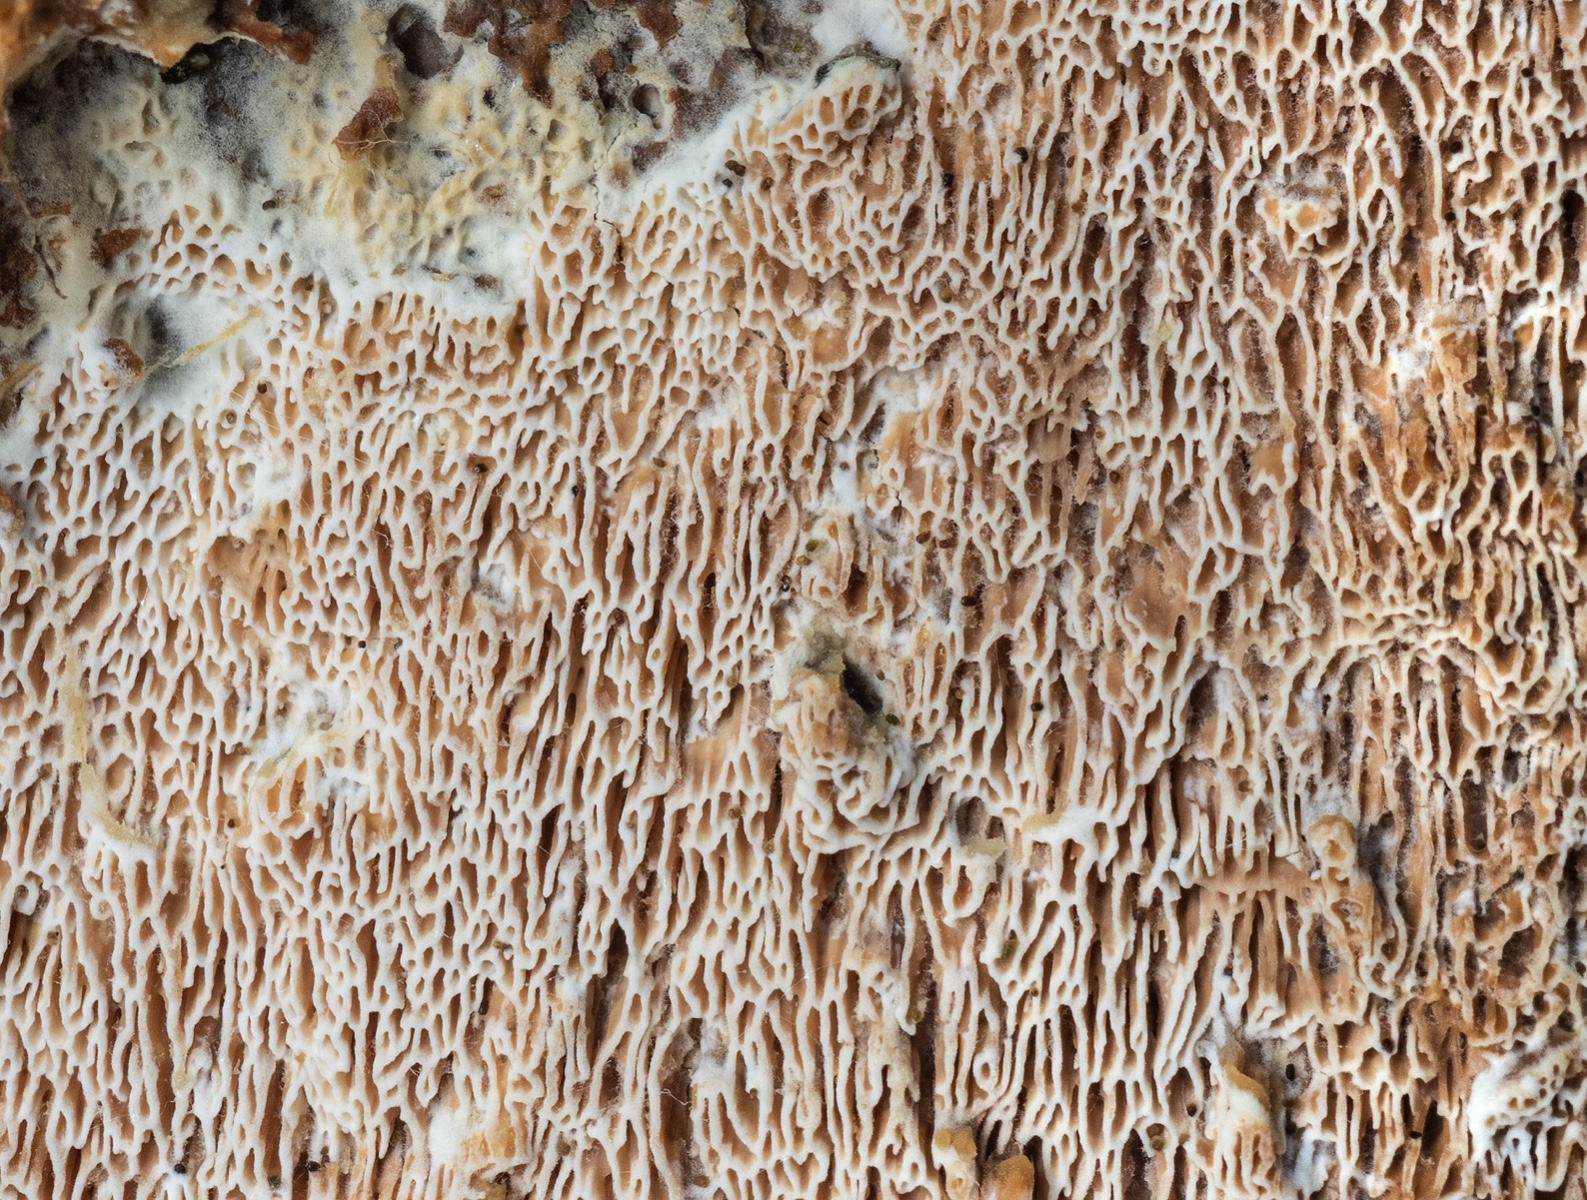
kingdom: Fungi
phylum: Basidiomycota
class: Agaricomycetes
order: Polyporales
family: Irpicaceae
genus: Resiniporus
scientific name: Resiniporus resinascens
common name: trist pastelporesvamp
